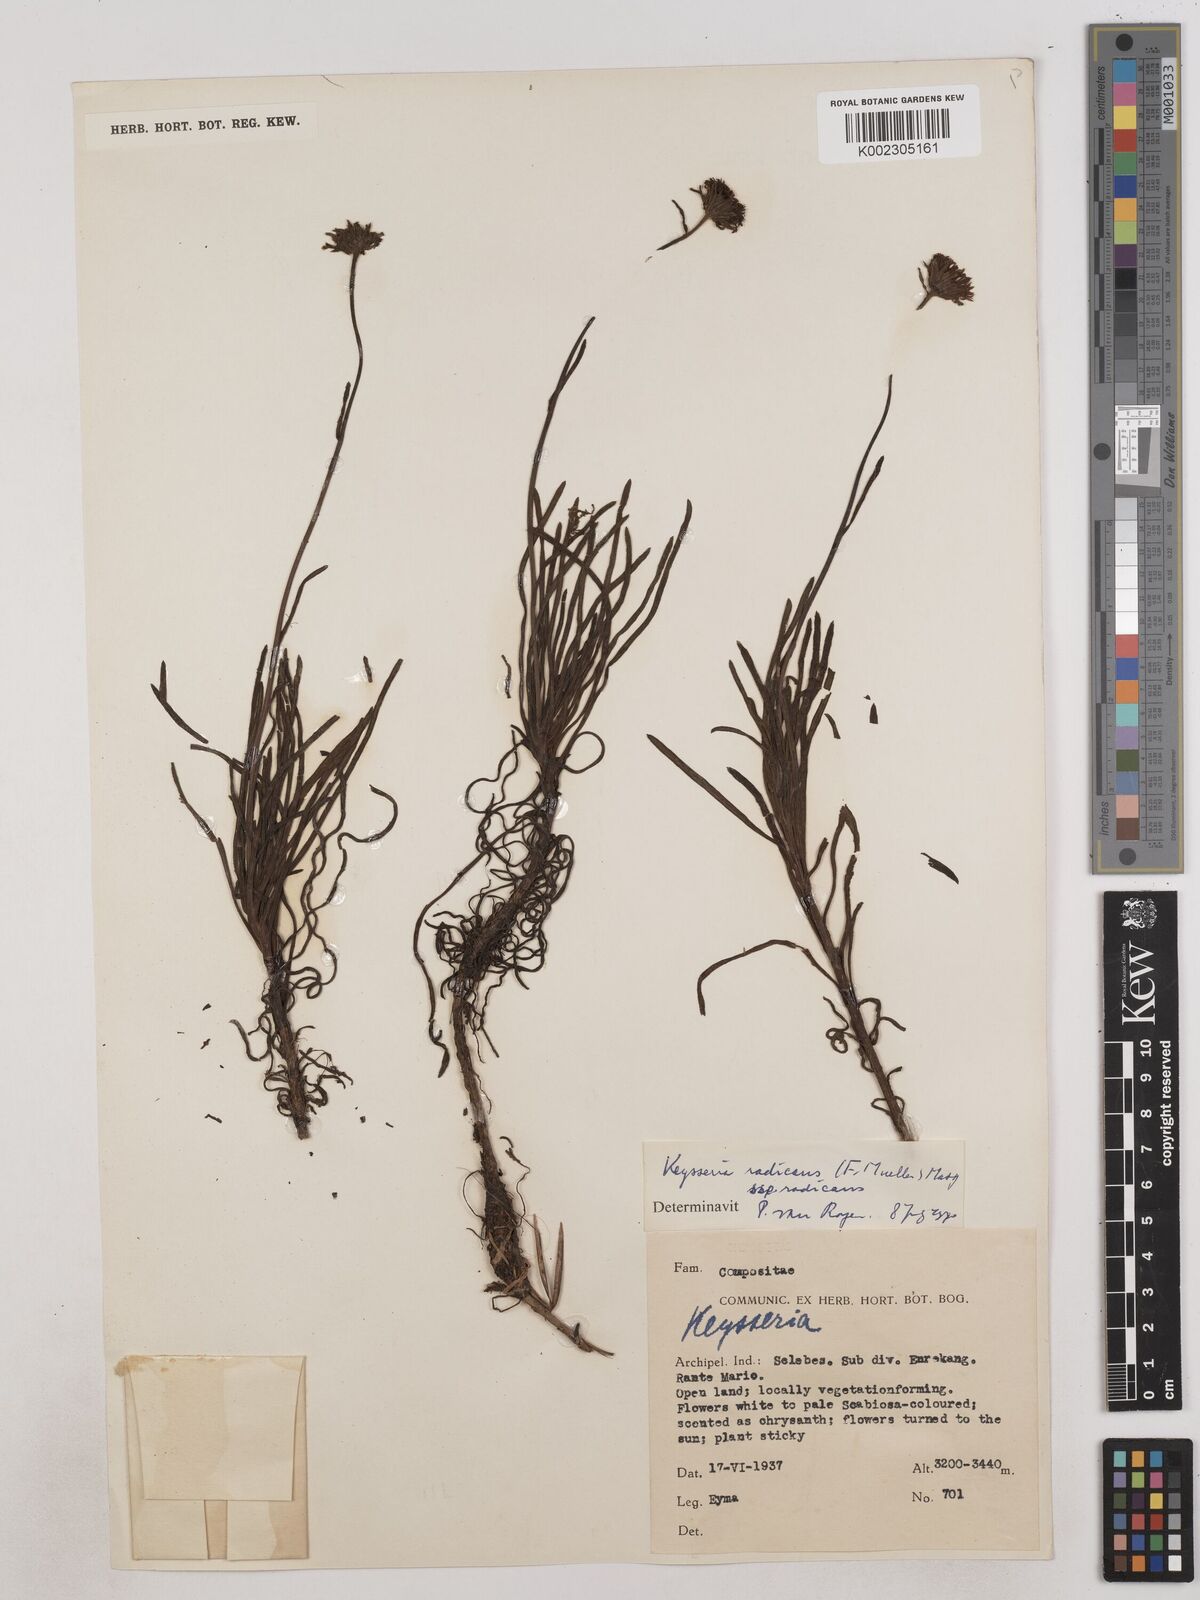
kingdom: Plantae
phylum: Tracheophyta
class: Magnoliopsida
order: Asterales
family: Asteraceae
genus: Keysseria
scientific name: Keysseria radicans
